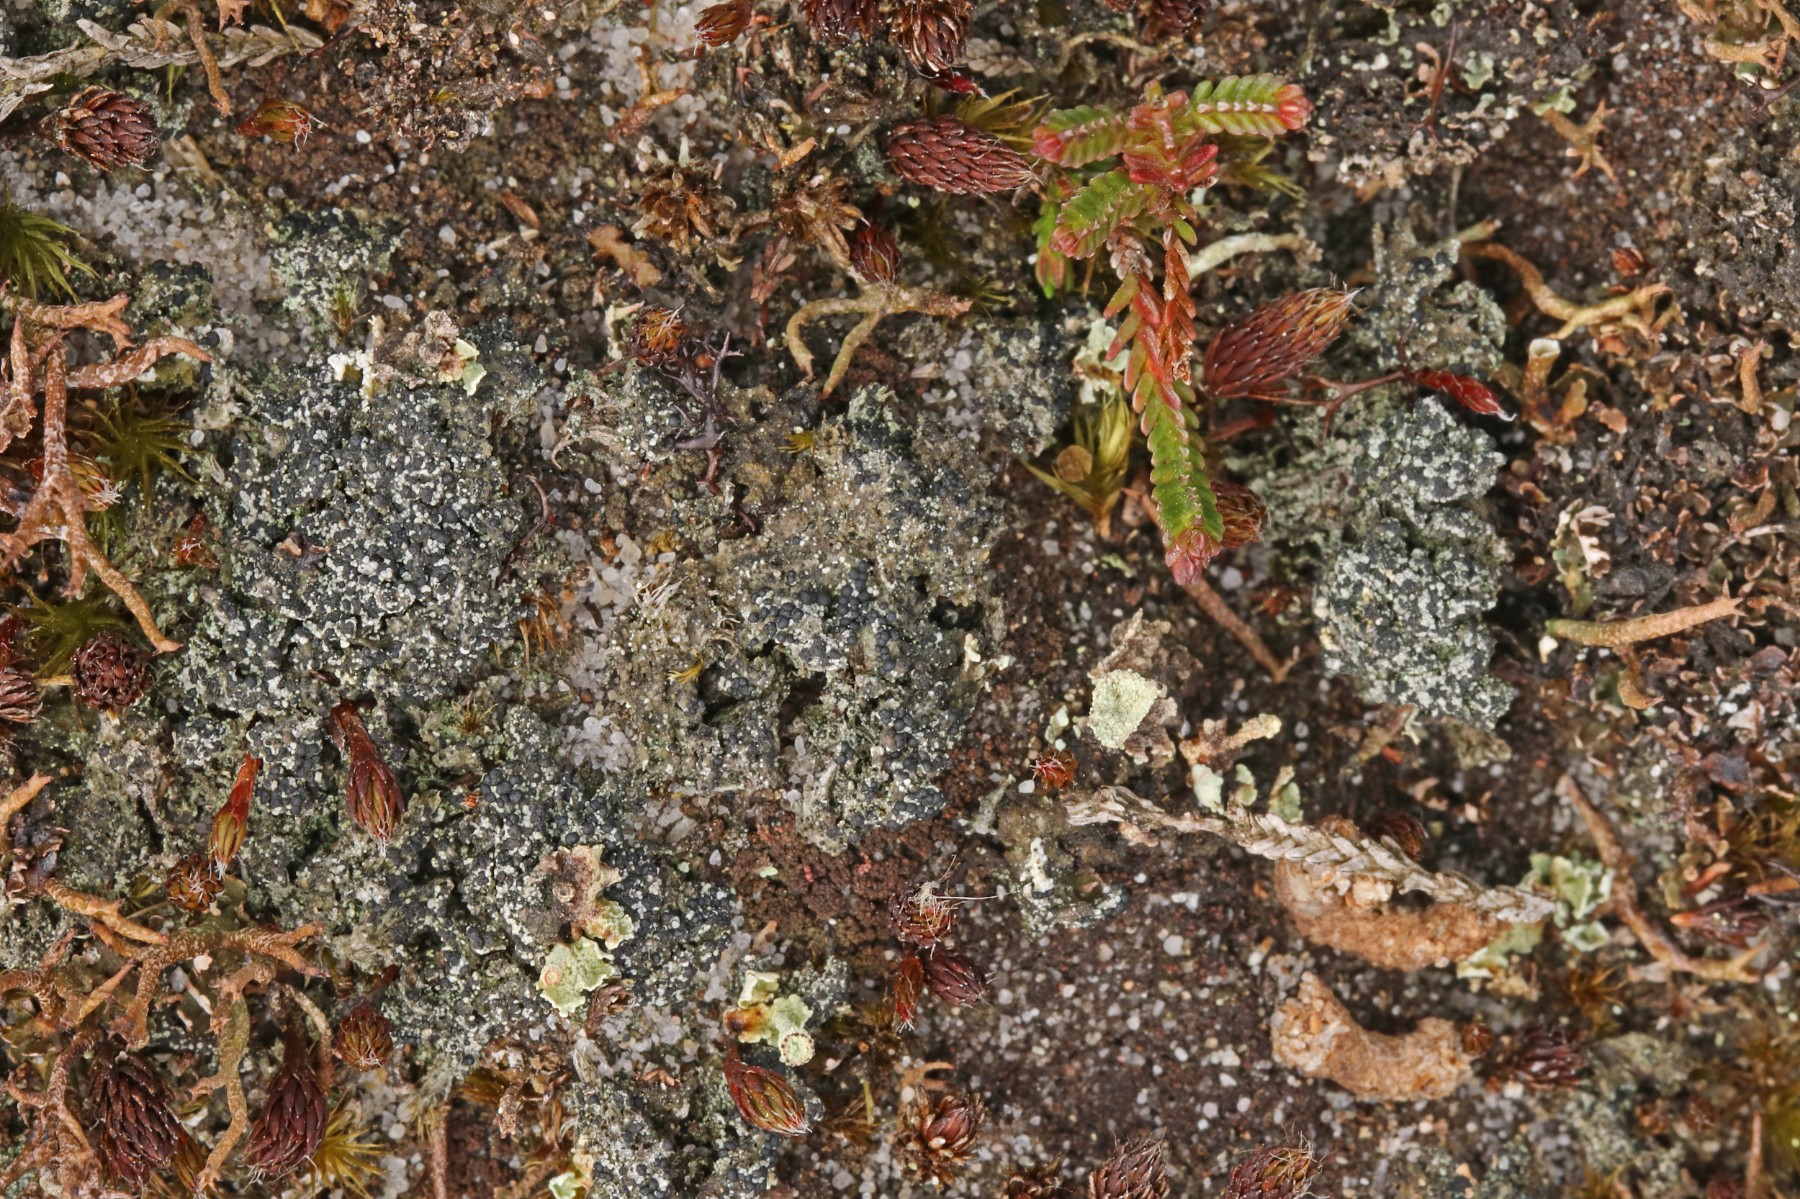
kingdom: Fungi
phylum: Ascomycota
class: Lecanoromycetes
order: Lecanorales
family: Byssolomataceae
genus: Micarea
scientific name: Micarea lignaria
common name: tørve-knaplav
